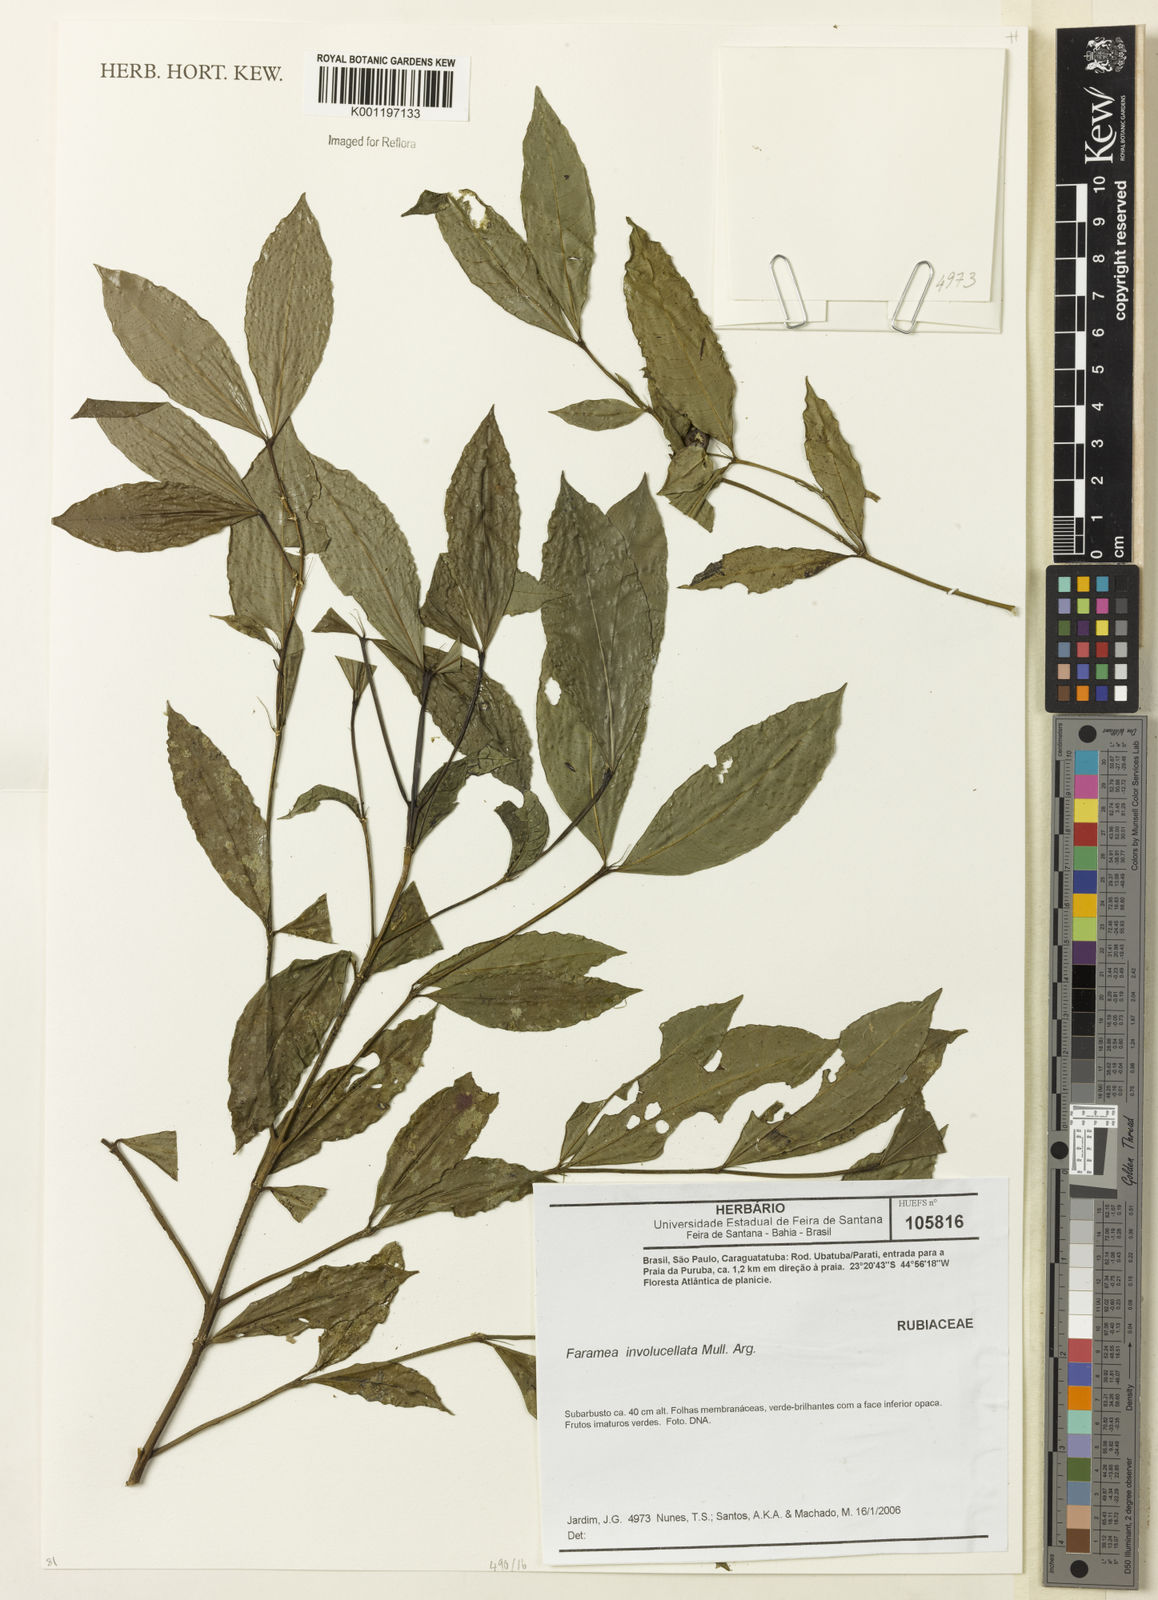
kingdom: Plantae
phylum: Tracheophyta
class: Magnoliopsida
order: Gentianales
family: Rubiaceae
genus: Faramea
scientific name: Faramea
